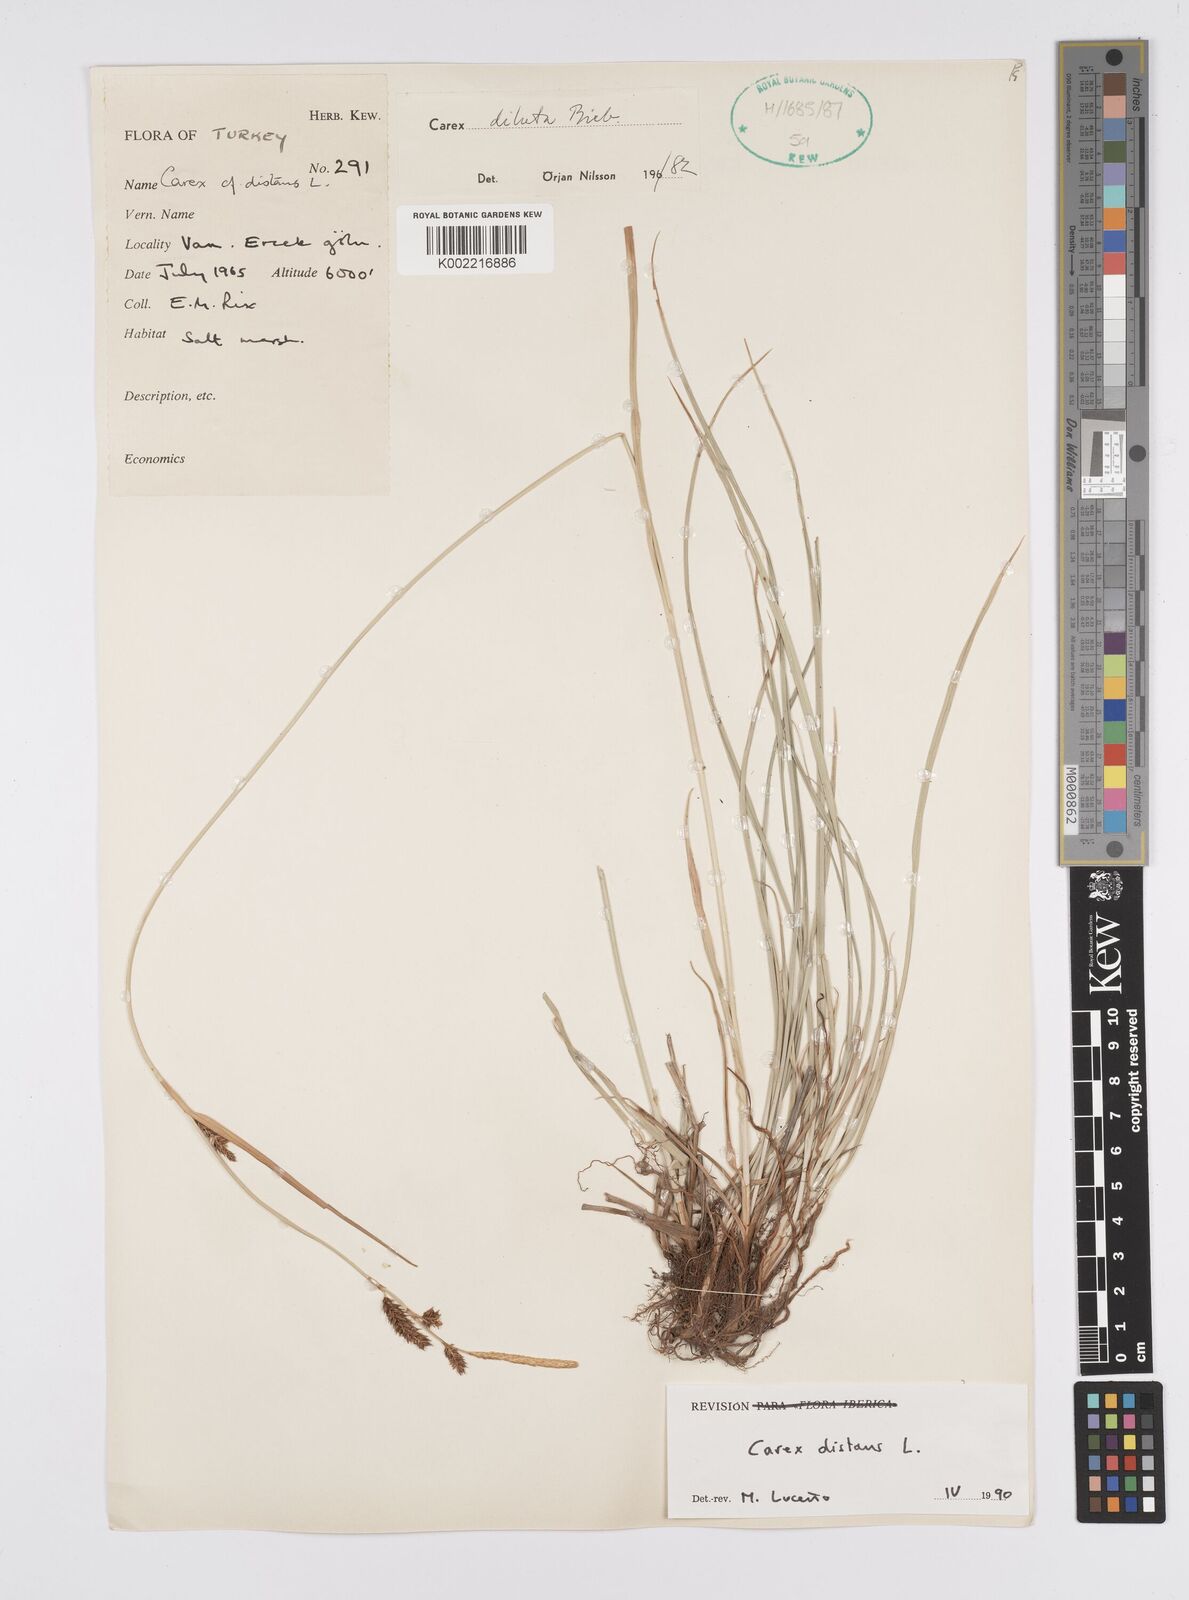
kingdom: Plantae
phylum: Tracheophyta
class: Liliopsida
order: Poales
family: Cyperaceae
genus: Carex
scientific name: Carex distans
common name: Distant sedge
